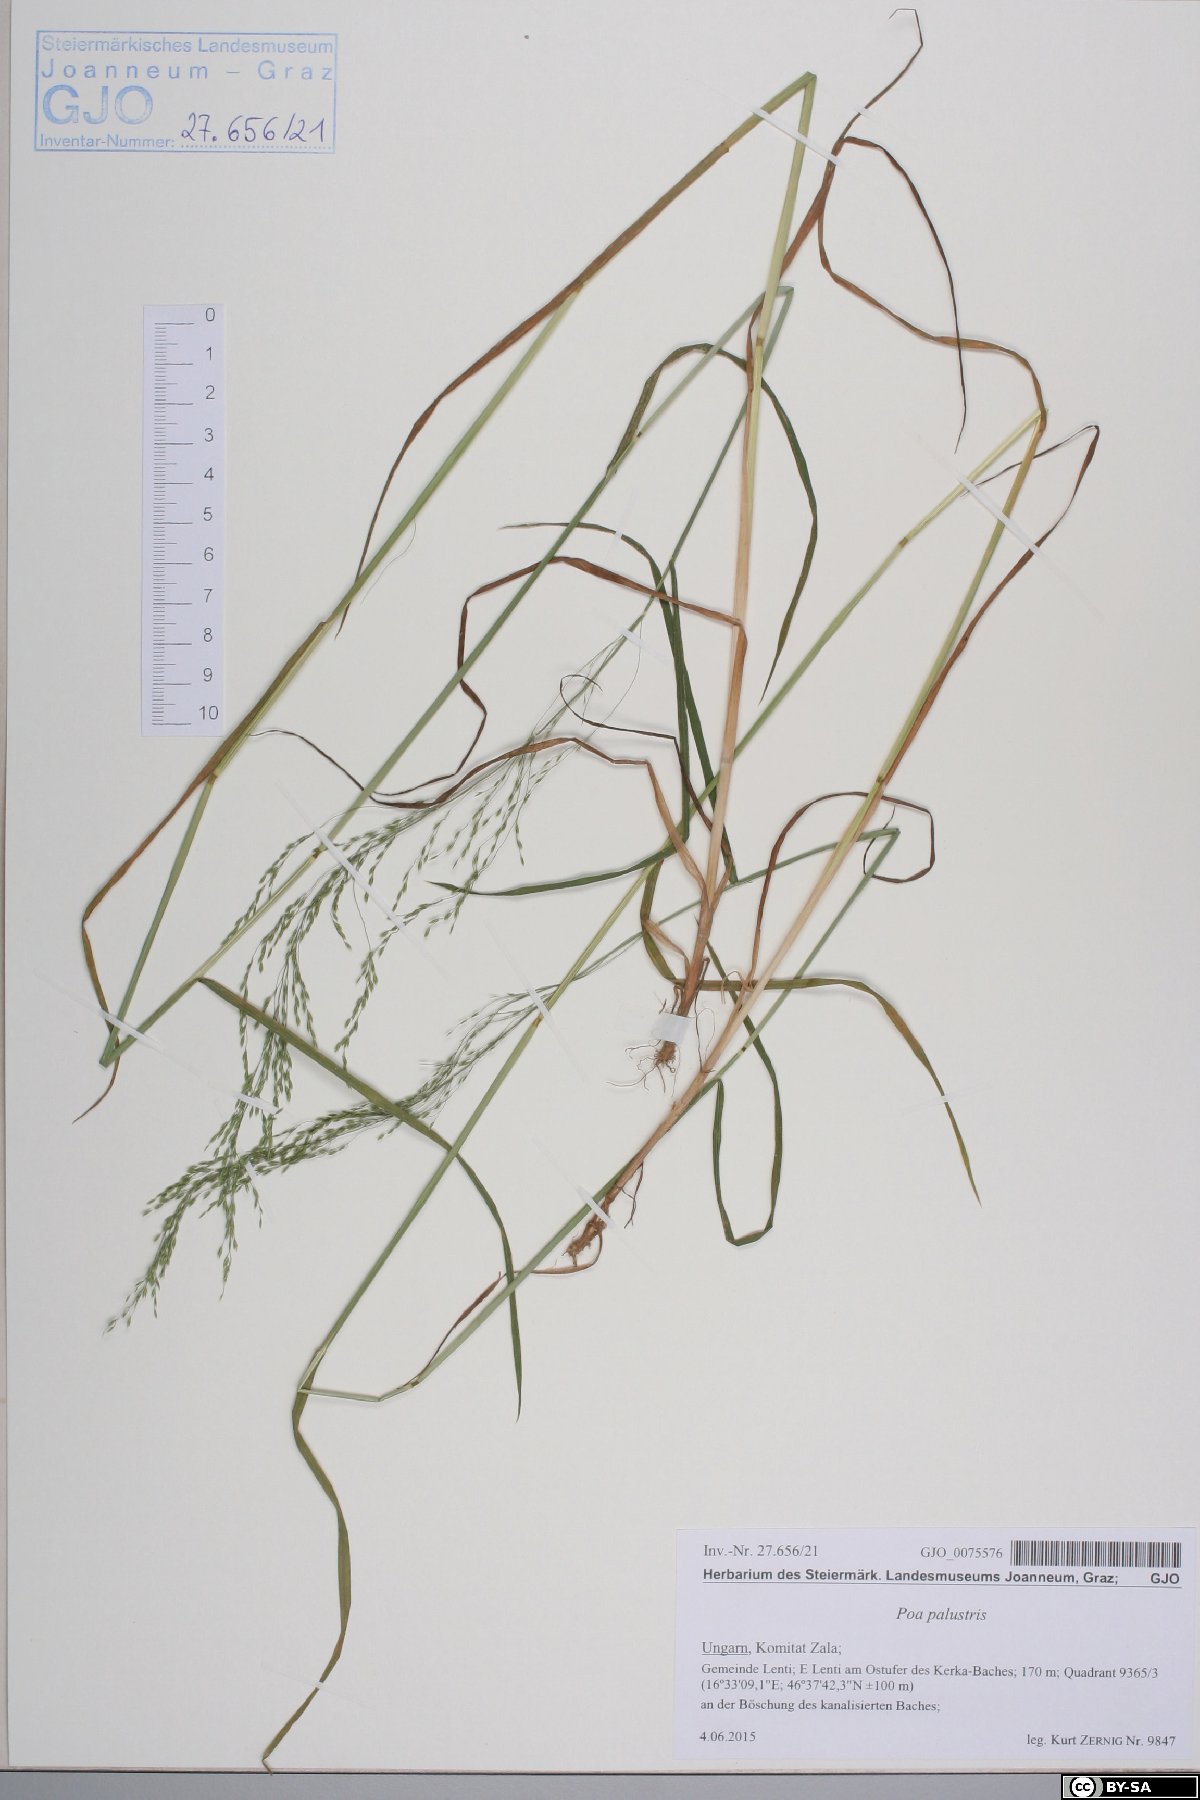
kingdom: Plantae
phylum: Tracheophyta
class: Liliopsida
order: Poales
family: Poaceae
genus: Poa
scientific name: Poa palustris
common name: Swamp meadow-grass
